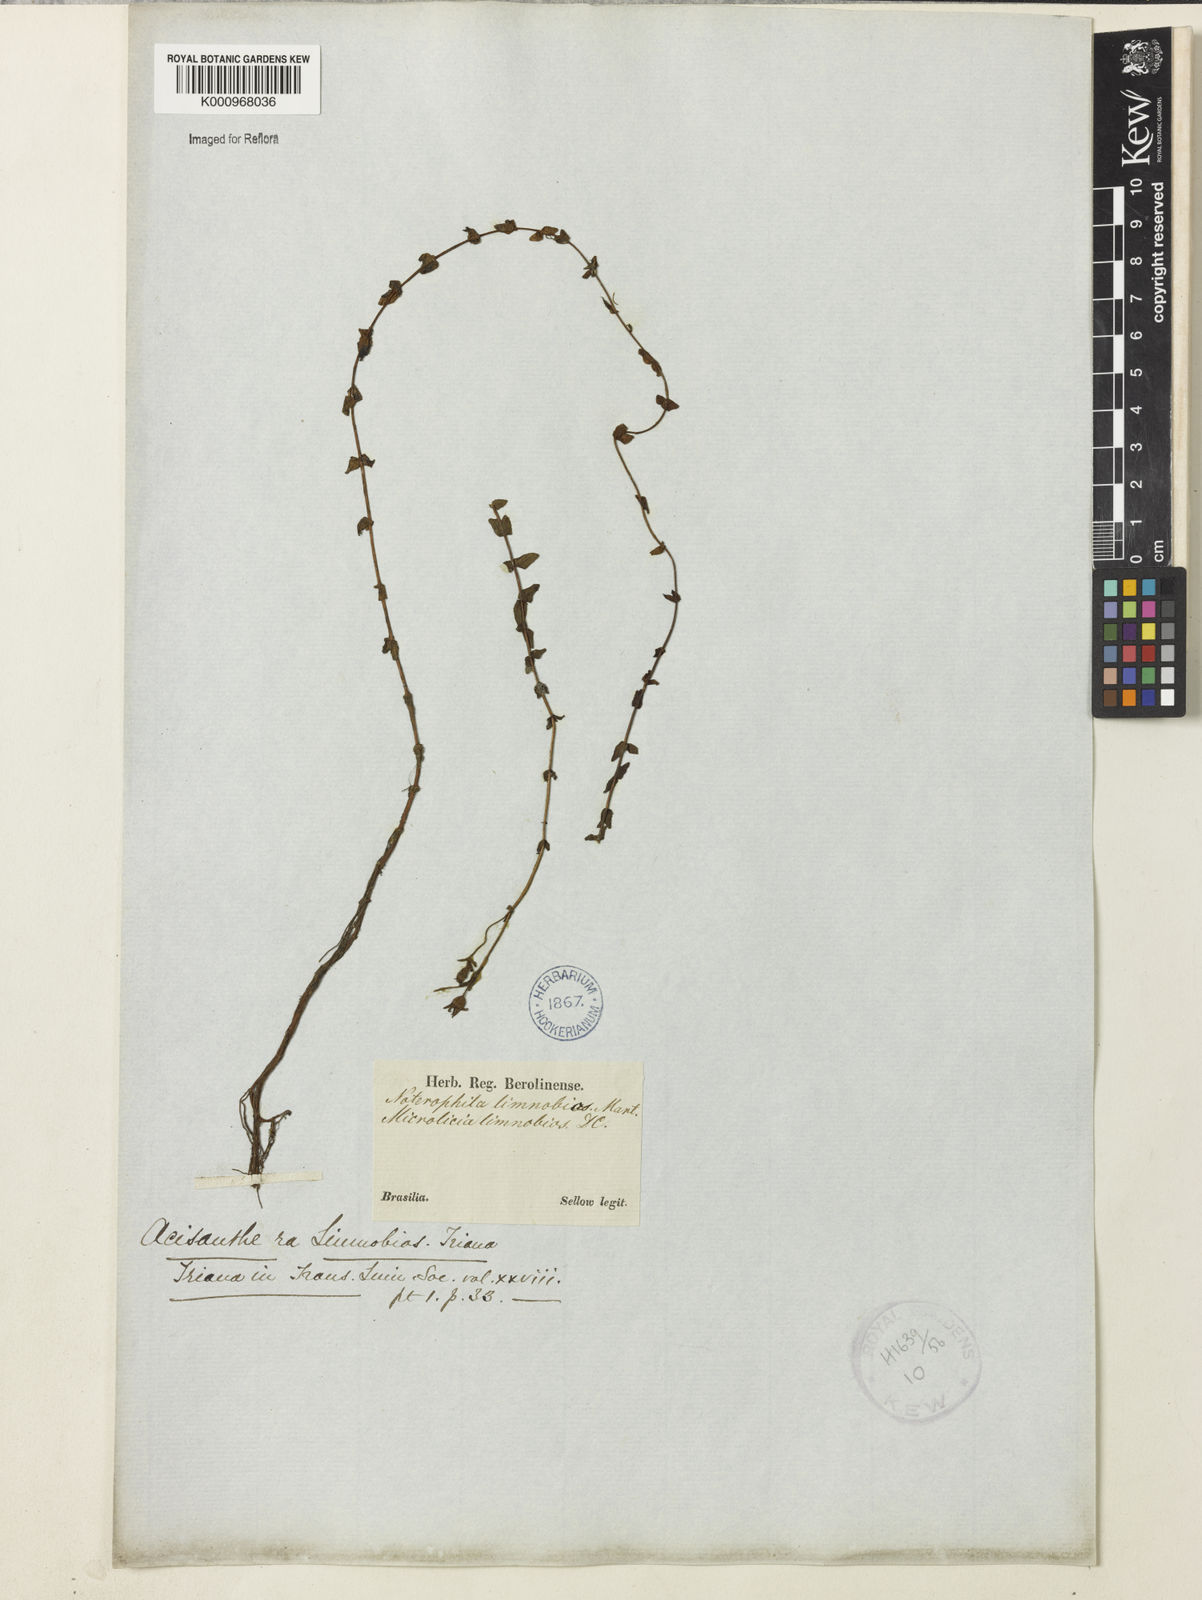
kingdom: Plantae
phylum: Tracheophyta
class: Magnoliopsida
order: Myrtales
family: Melastomataceae
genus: Acisanthera
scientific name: Acisanthera
